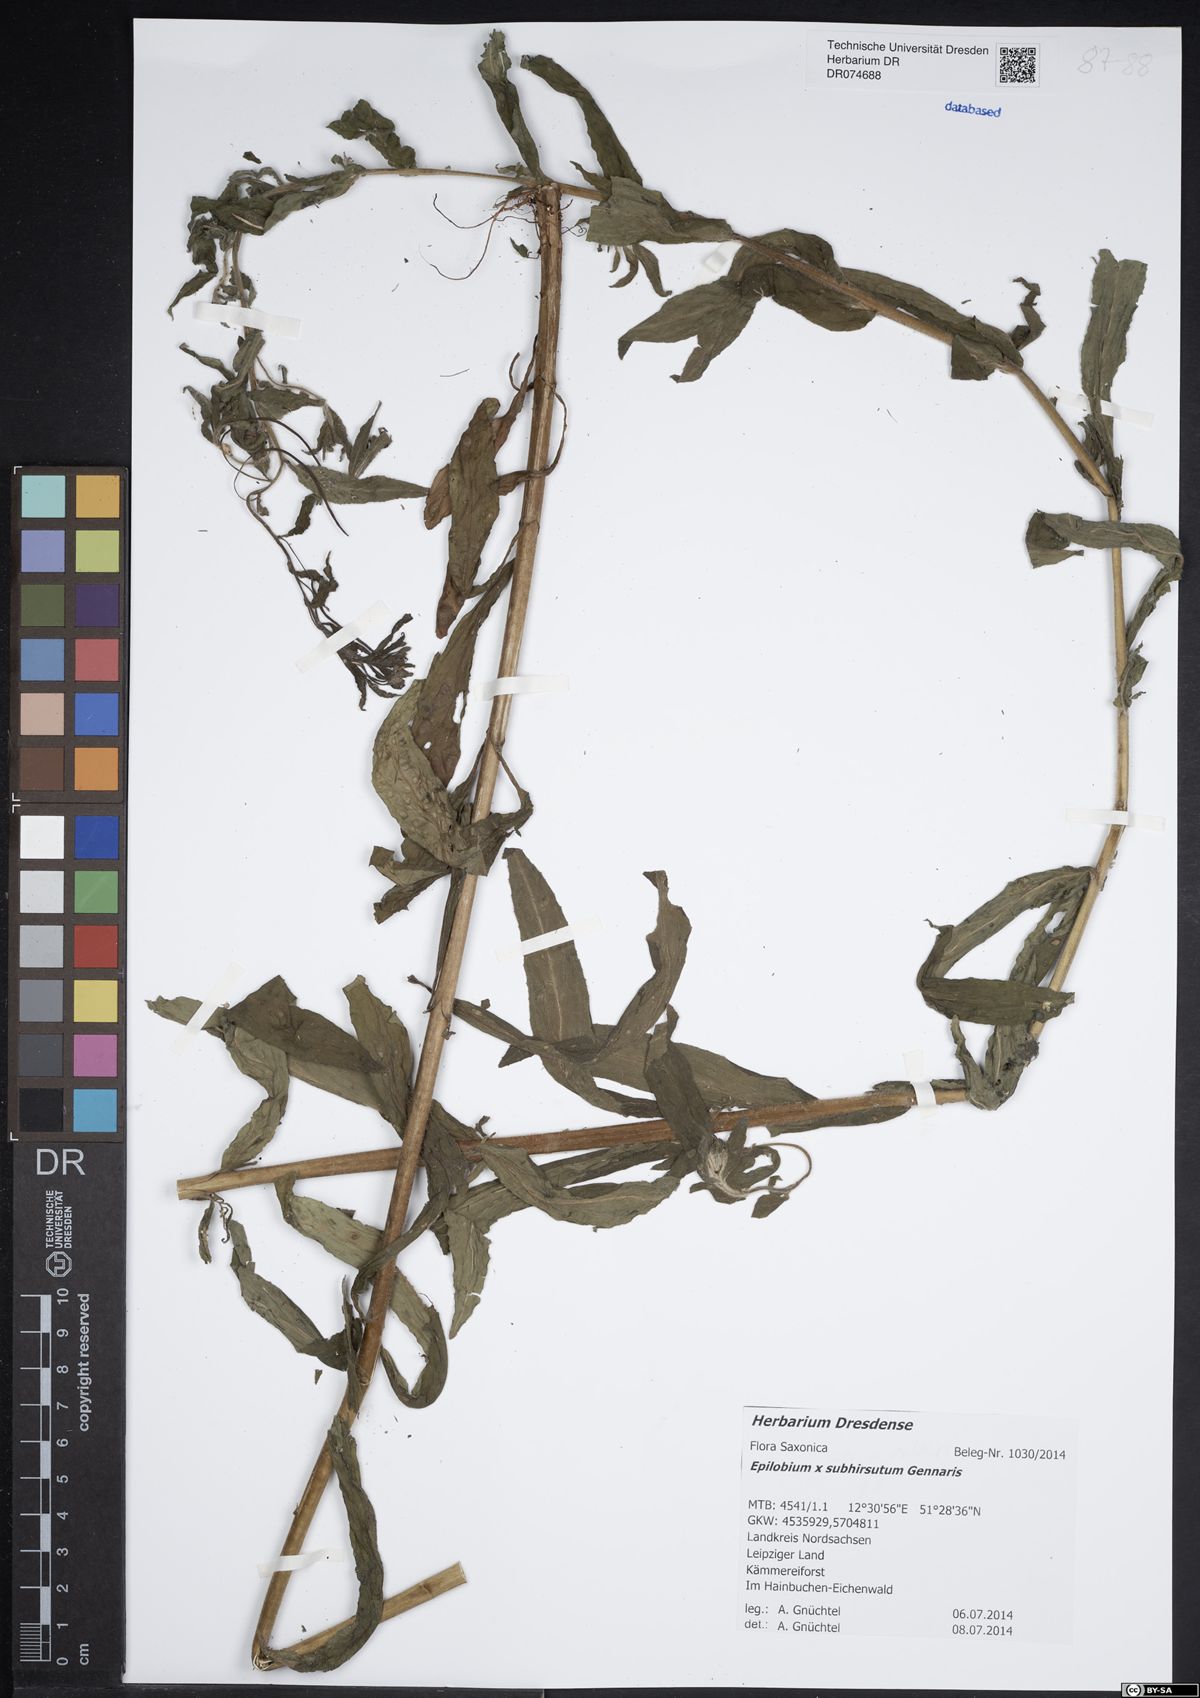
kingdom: Plantae
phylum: Tracheophyta
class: Magnoliopsida
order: Myrtales
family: Onagraceae
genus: Epilobium
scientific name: Epilobium sericeum
